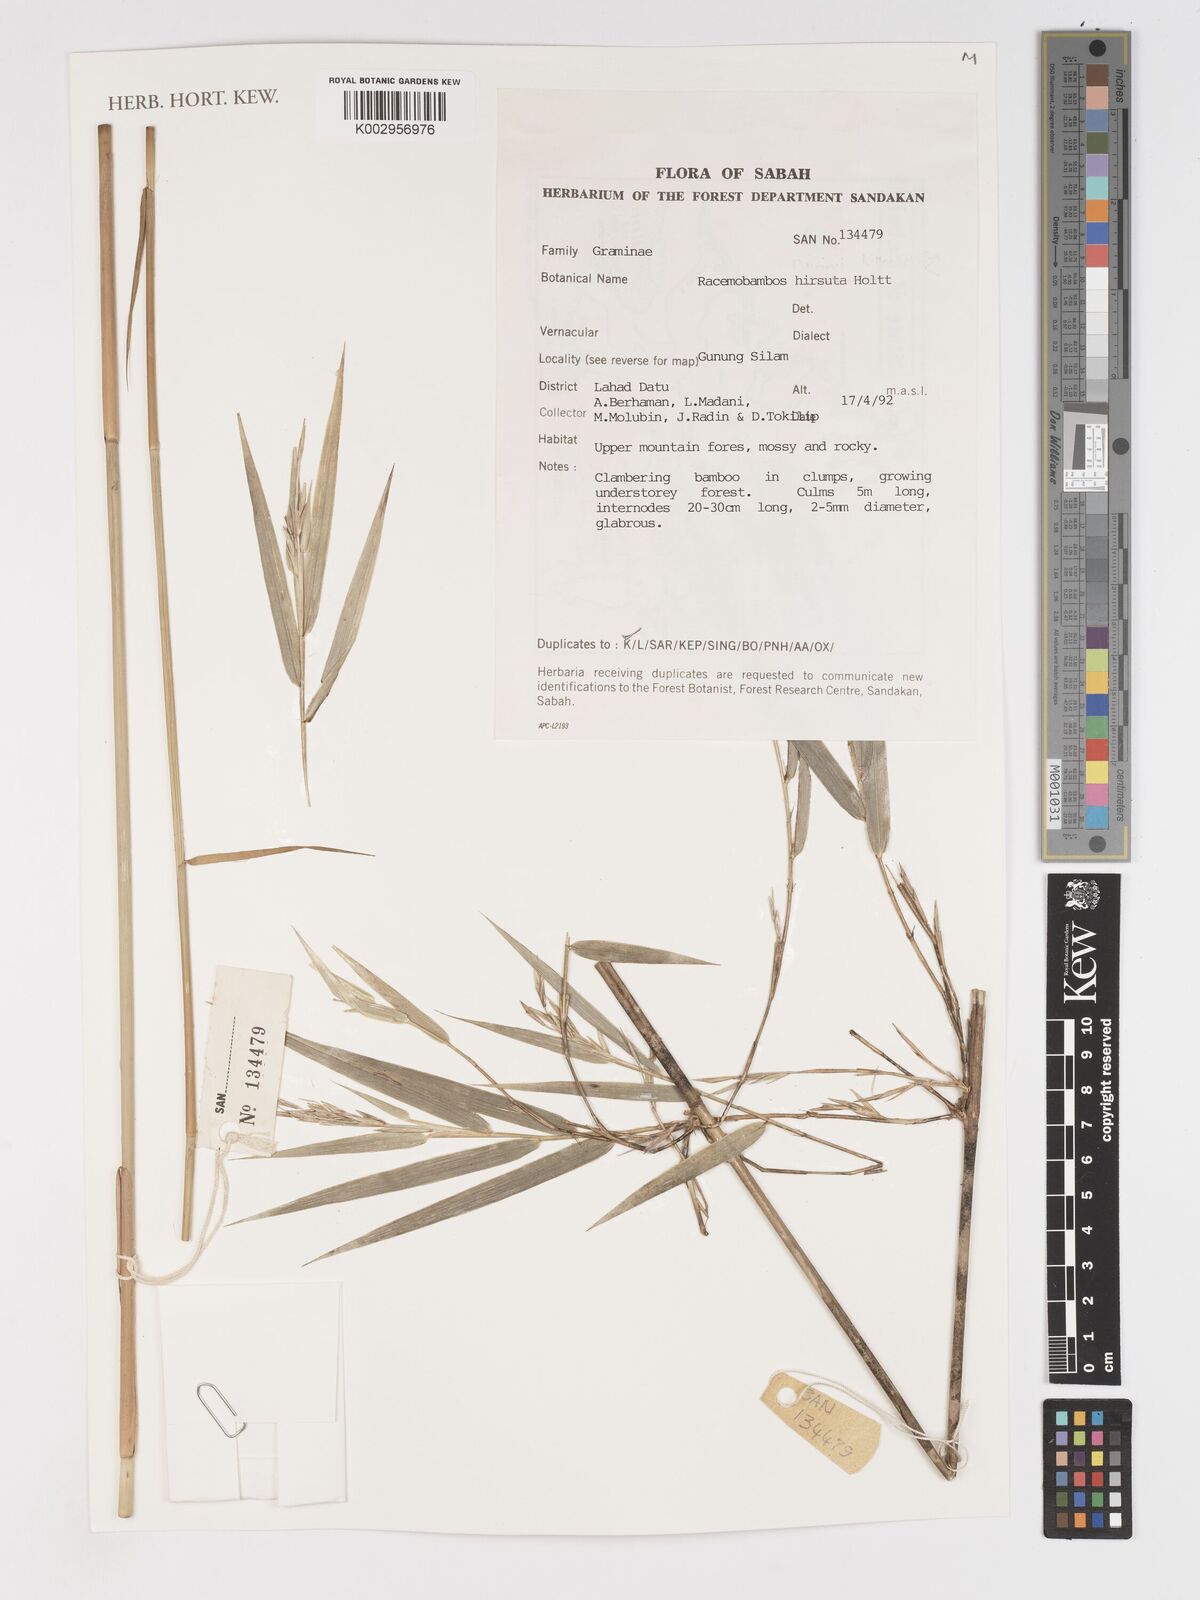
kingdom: Plantae
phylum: Tracheophyta
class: Liliopsida
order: Poales
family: Poaceae
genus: Racemobambos
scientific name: Racemobambos hirsuta
